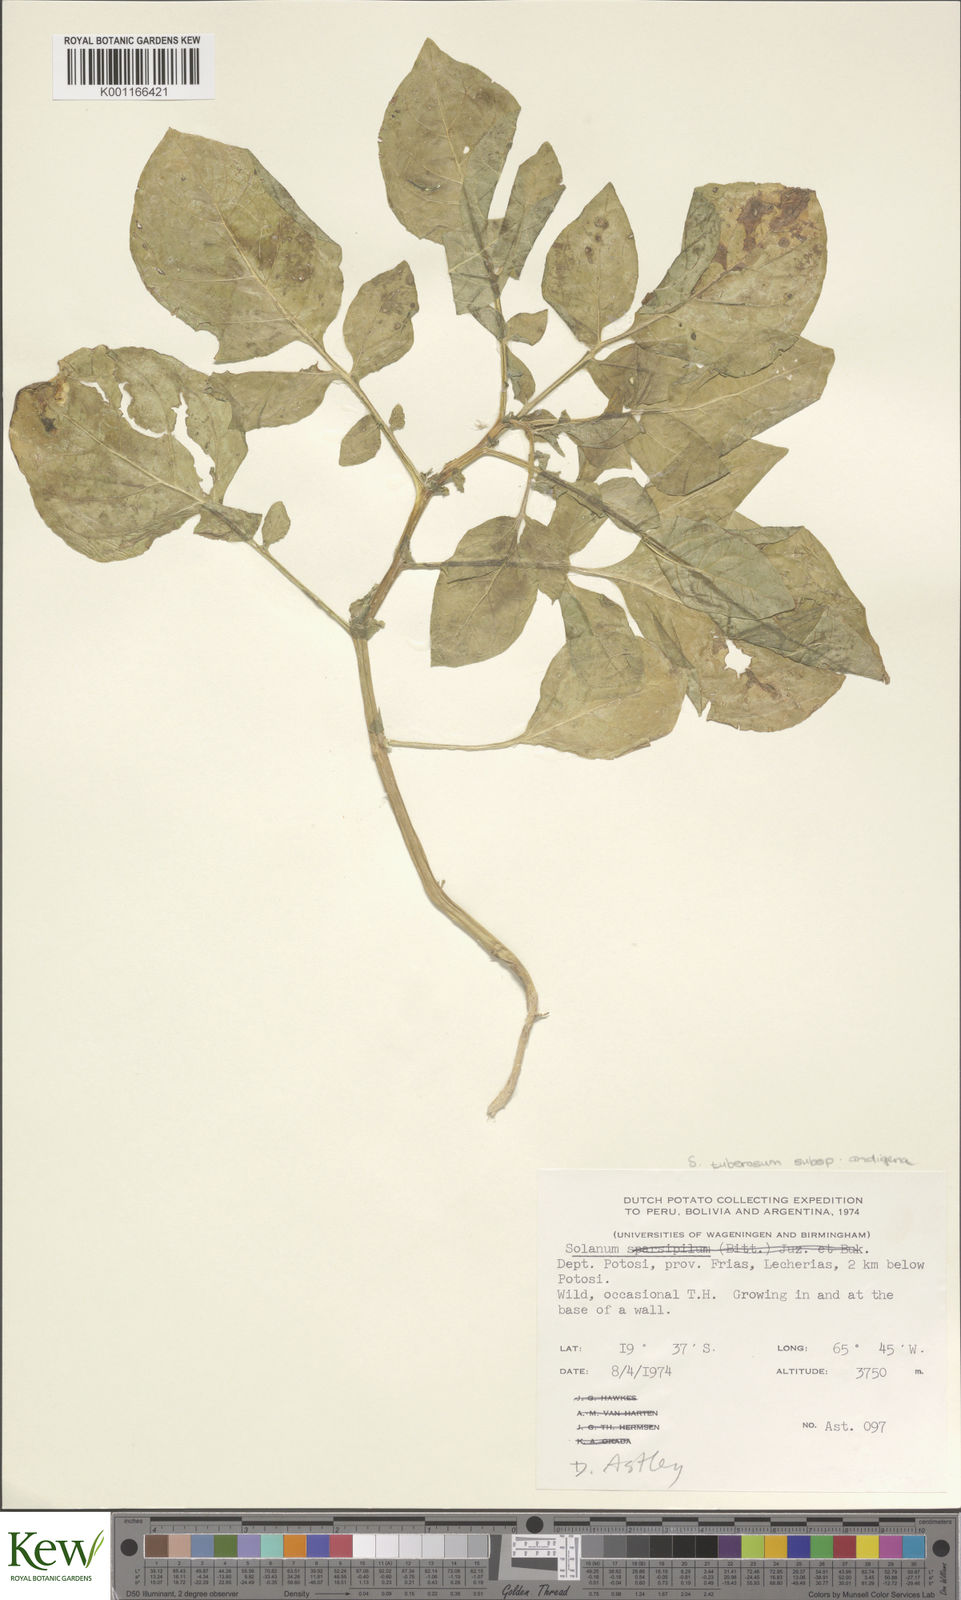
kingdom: Plantae
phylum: Tracheophyta
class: Magnoliopsida
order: Solanales
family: Solanaceae
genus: Solanum
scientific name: Solanum tuberosum
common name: Potato
